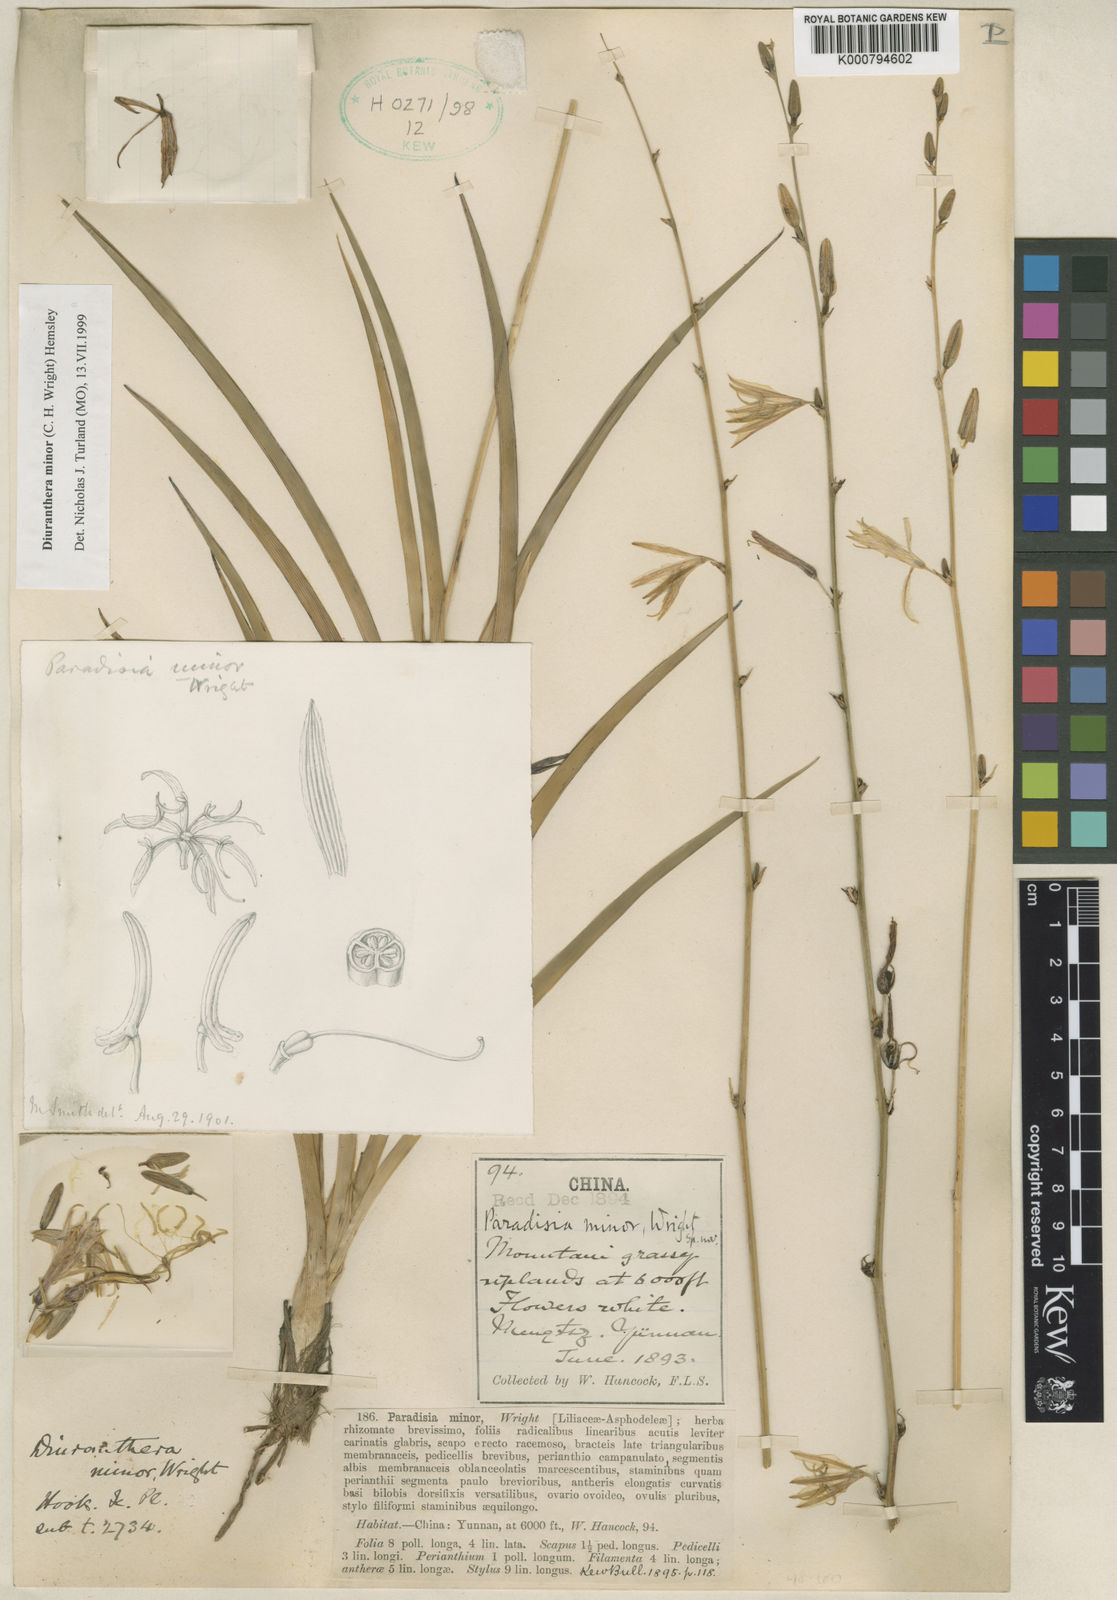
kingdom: Plantae
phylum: Tracheophyta
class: Liliopsida
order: Asparagales
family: Asparagaceae
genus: Chlorophytum
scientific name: Chlorophytum minor
